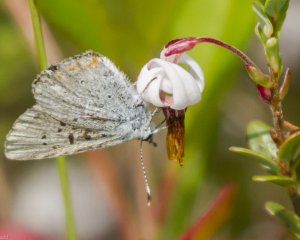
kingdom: Animalia
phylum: Arthropoda
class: Insecta
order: Lepidoptera
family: Sesiidae
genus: Sesia
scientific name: Sesia Lycaena epixanthe
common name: Bog Copper
